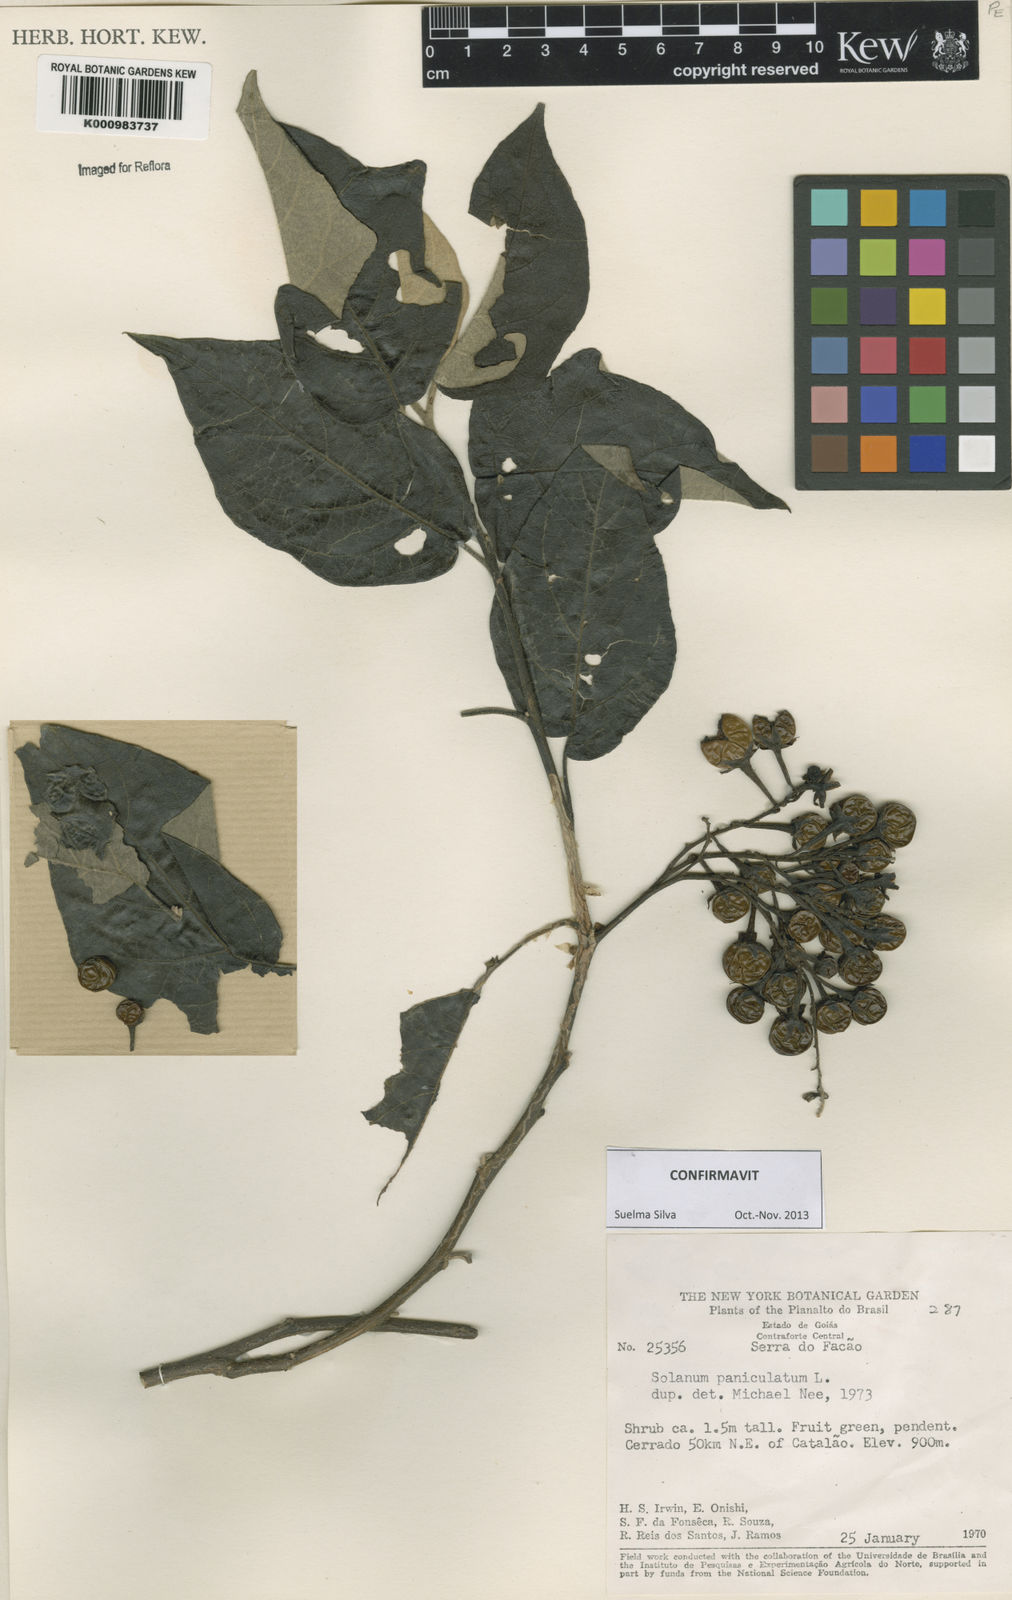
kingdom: Plantae
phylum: Tracheophyta
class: Magnoliopsida
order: Solanales
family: Solanaceae
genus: Solanum
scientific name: Solanum paniculatum
